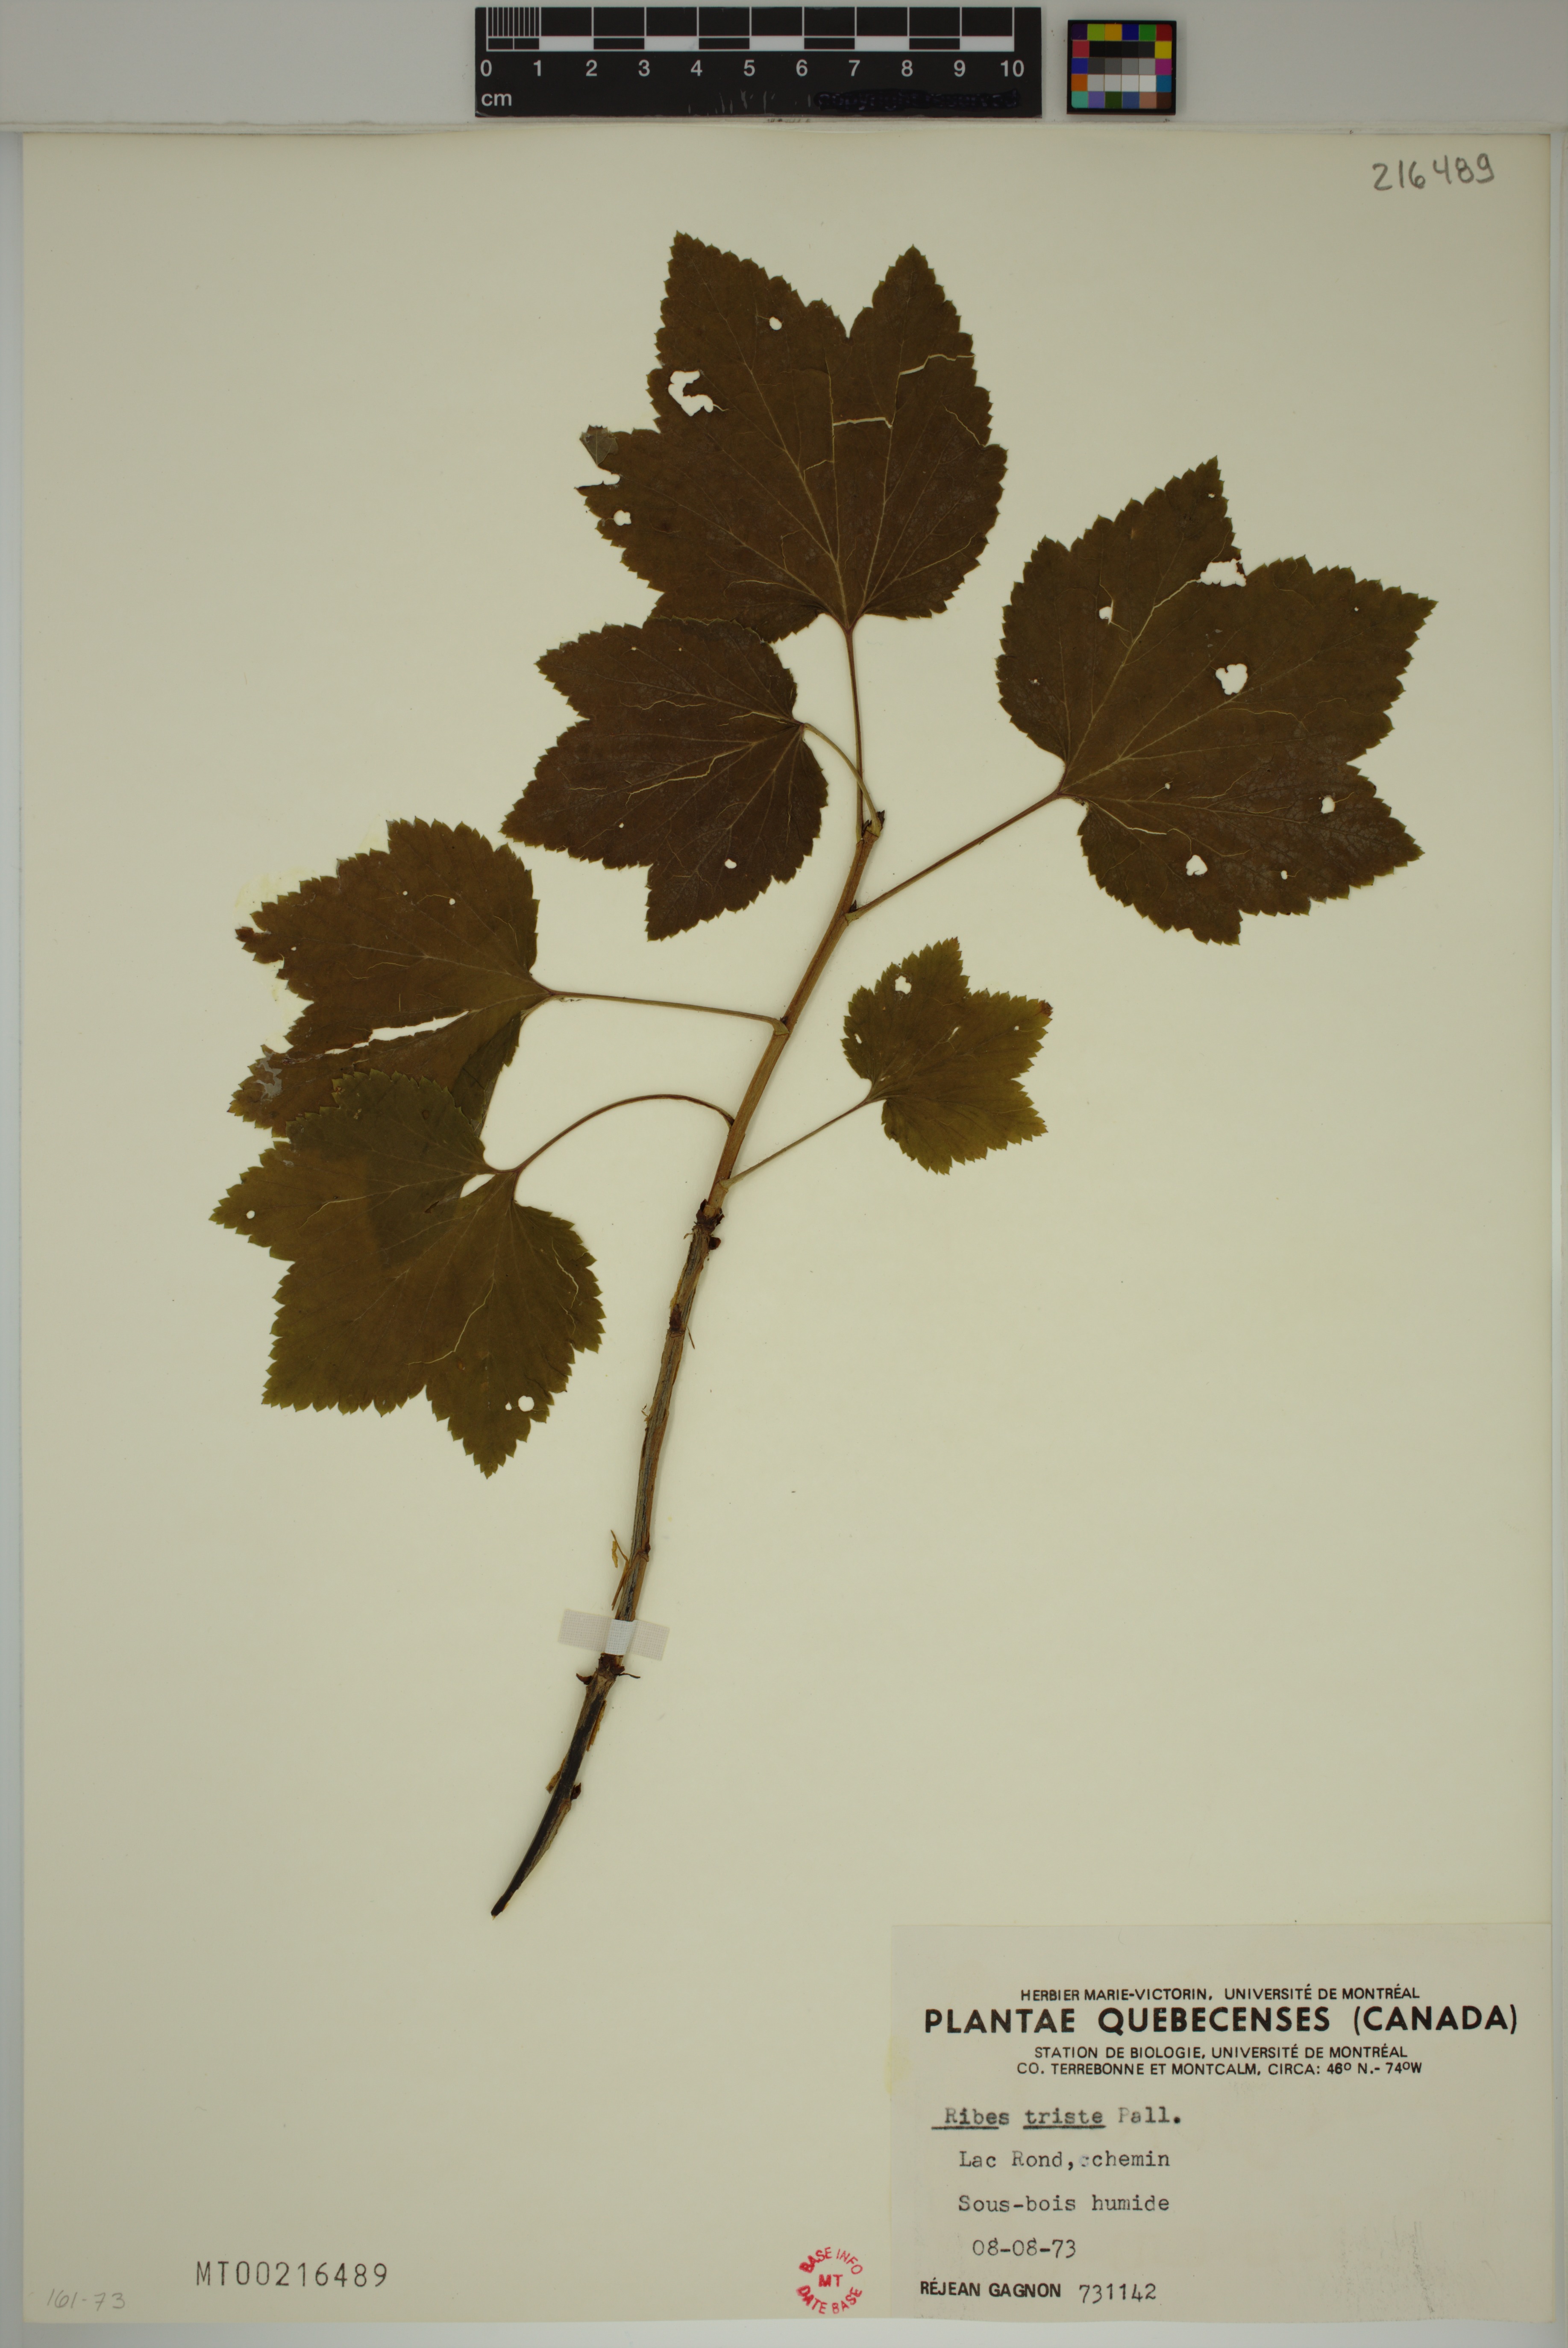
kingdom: Plantae
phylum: Tracheophyta
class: Magnoliopsida
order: Saxifragales
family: Grossulariaceae
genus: Ribes
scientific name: Ribes triste
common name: Swamp red currant
